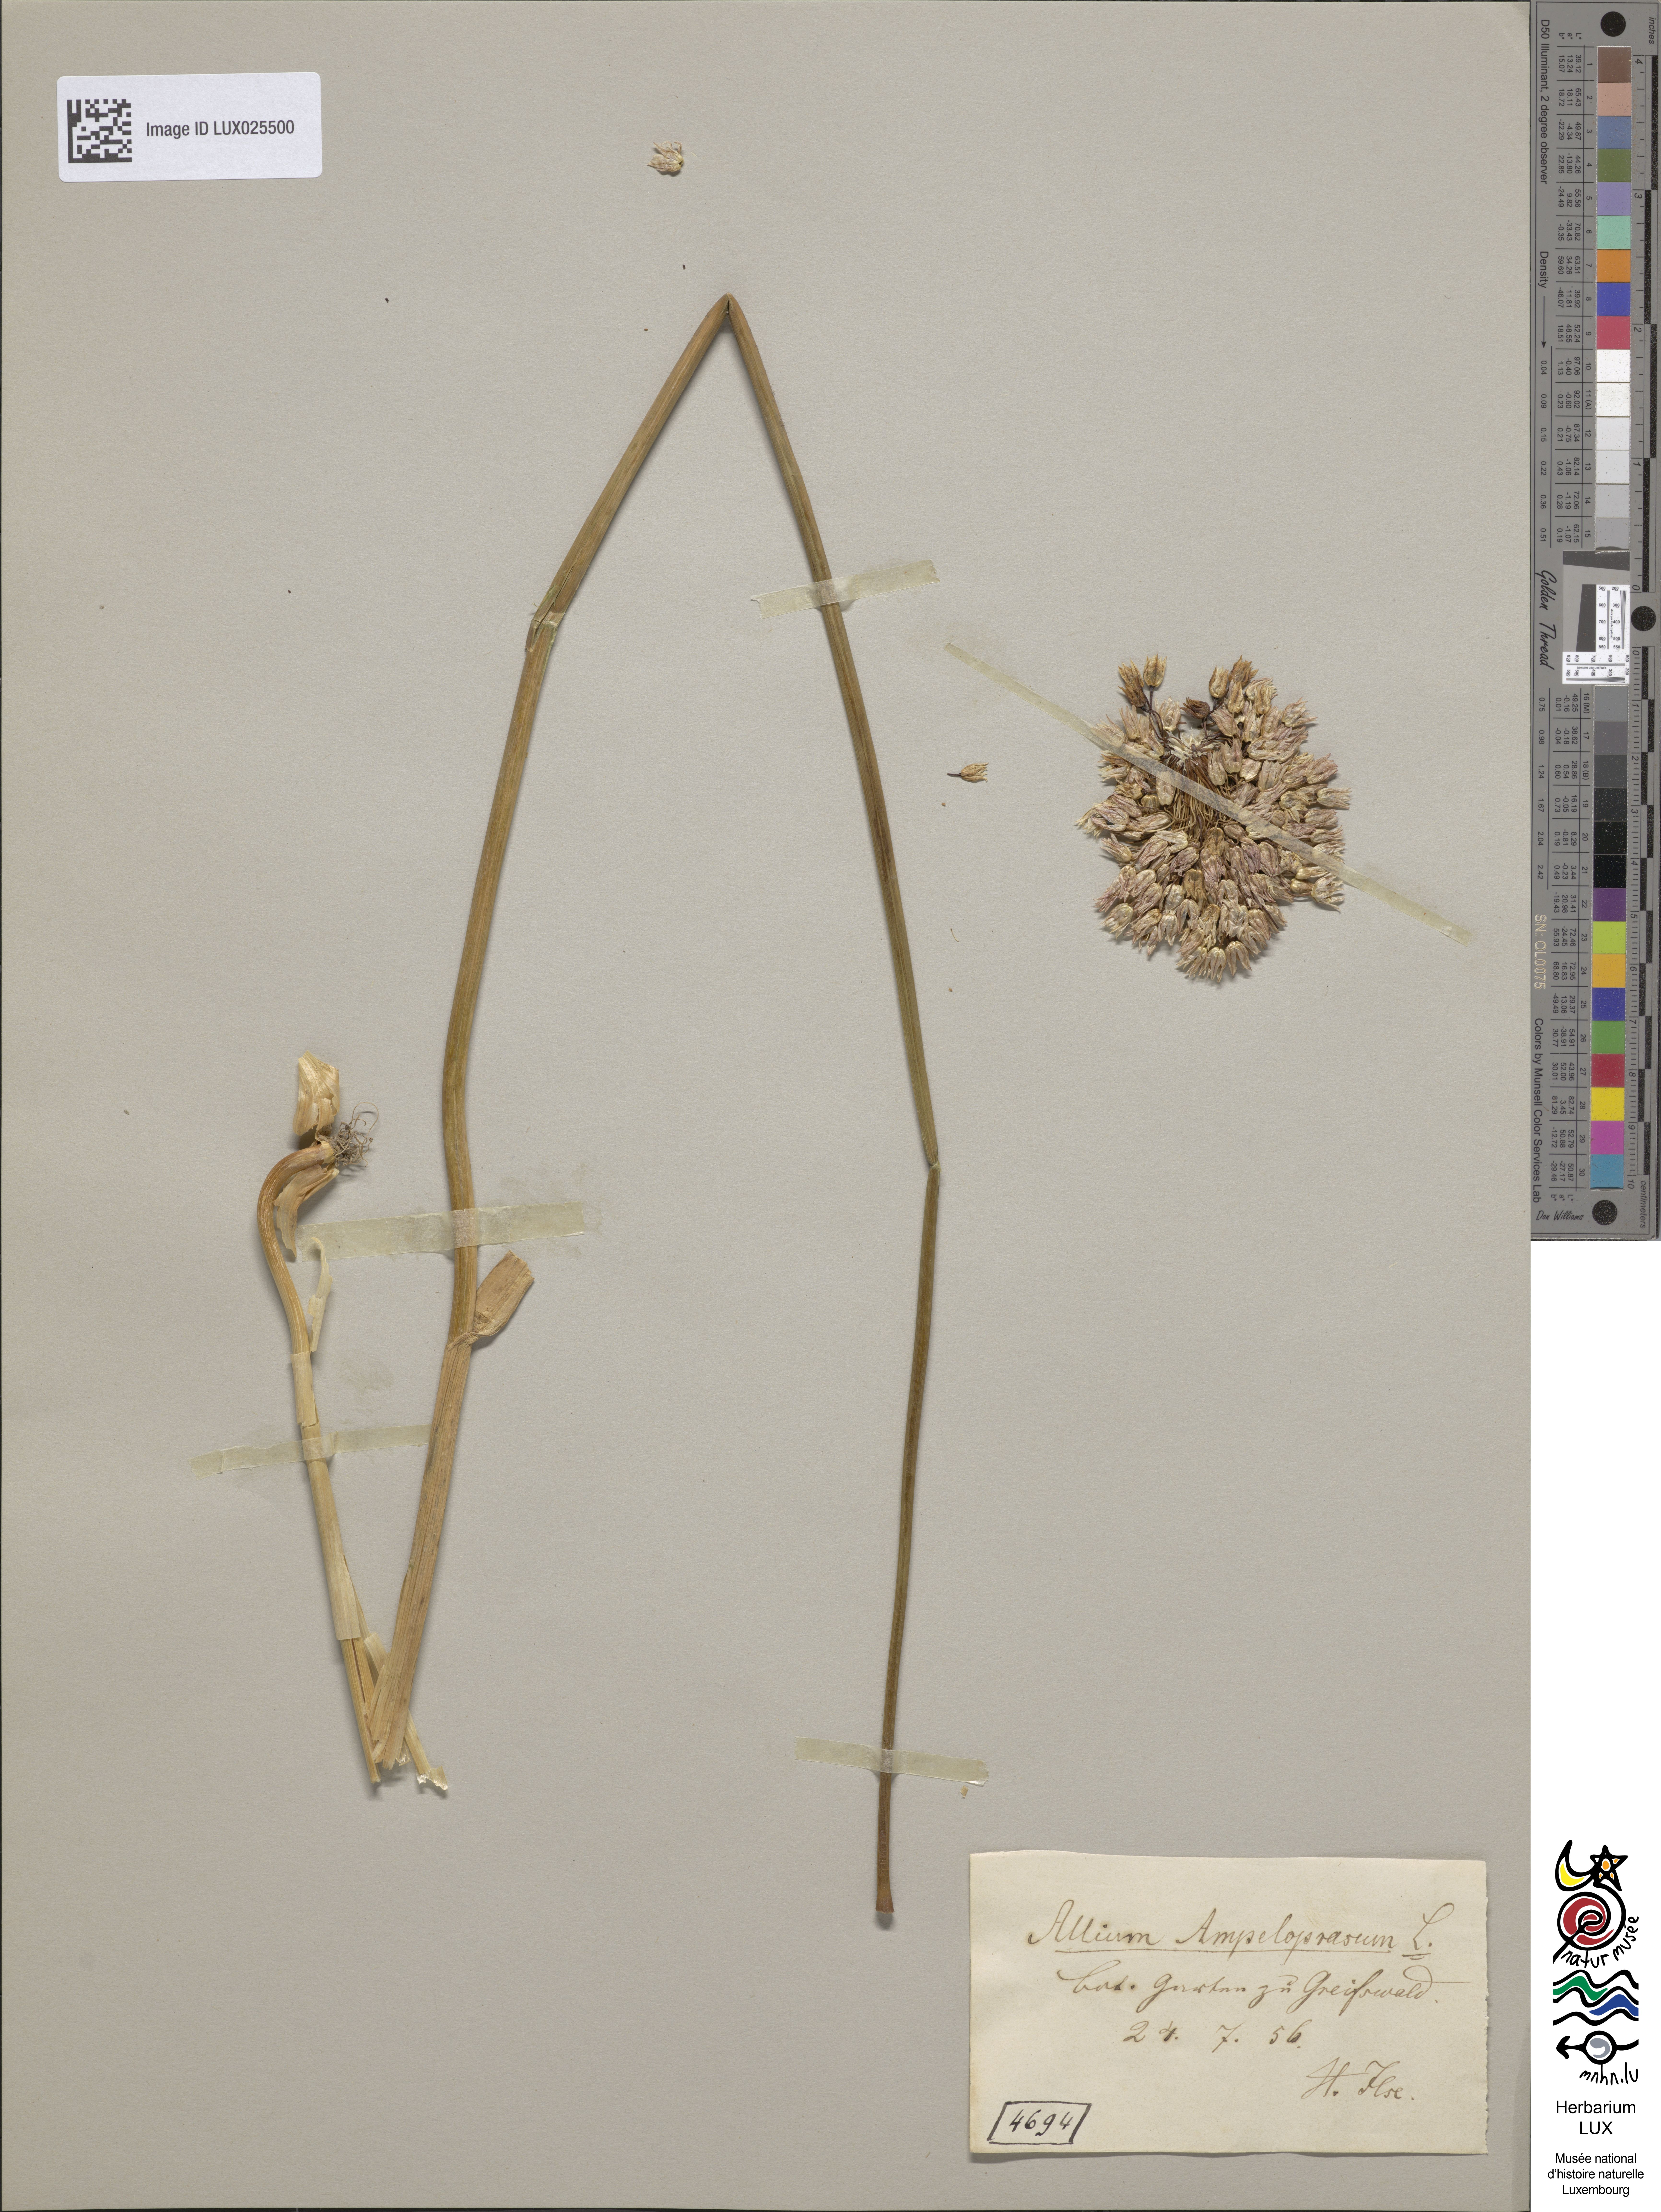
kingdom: Plantae
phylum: Tracheophyta
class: Liliopsida
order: Asparagales
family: Amaryllidaceae
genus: Allium
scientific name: Allium ampeloprasum
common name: Wild leek
